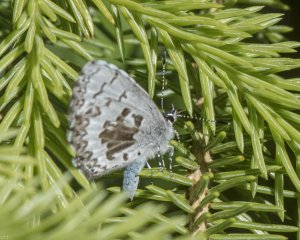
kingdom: Animalia
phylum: Arthropoda
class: Insecta
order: Lepidoptera
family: Lycaenidae
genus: Celastrina
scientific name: Celastrina serotina
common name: Cherry Gall Azure
